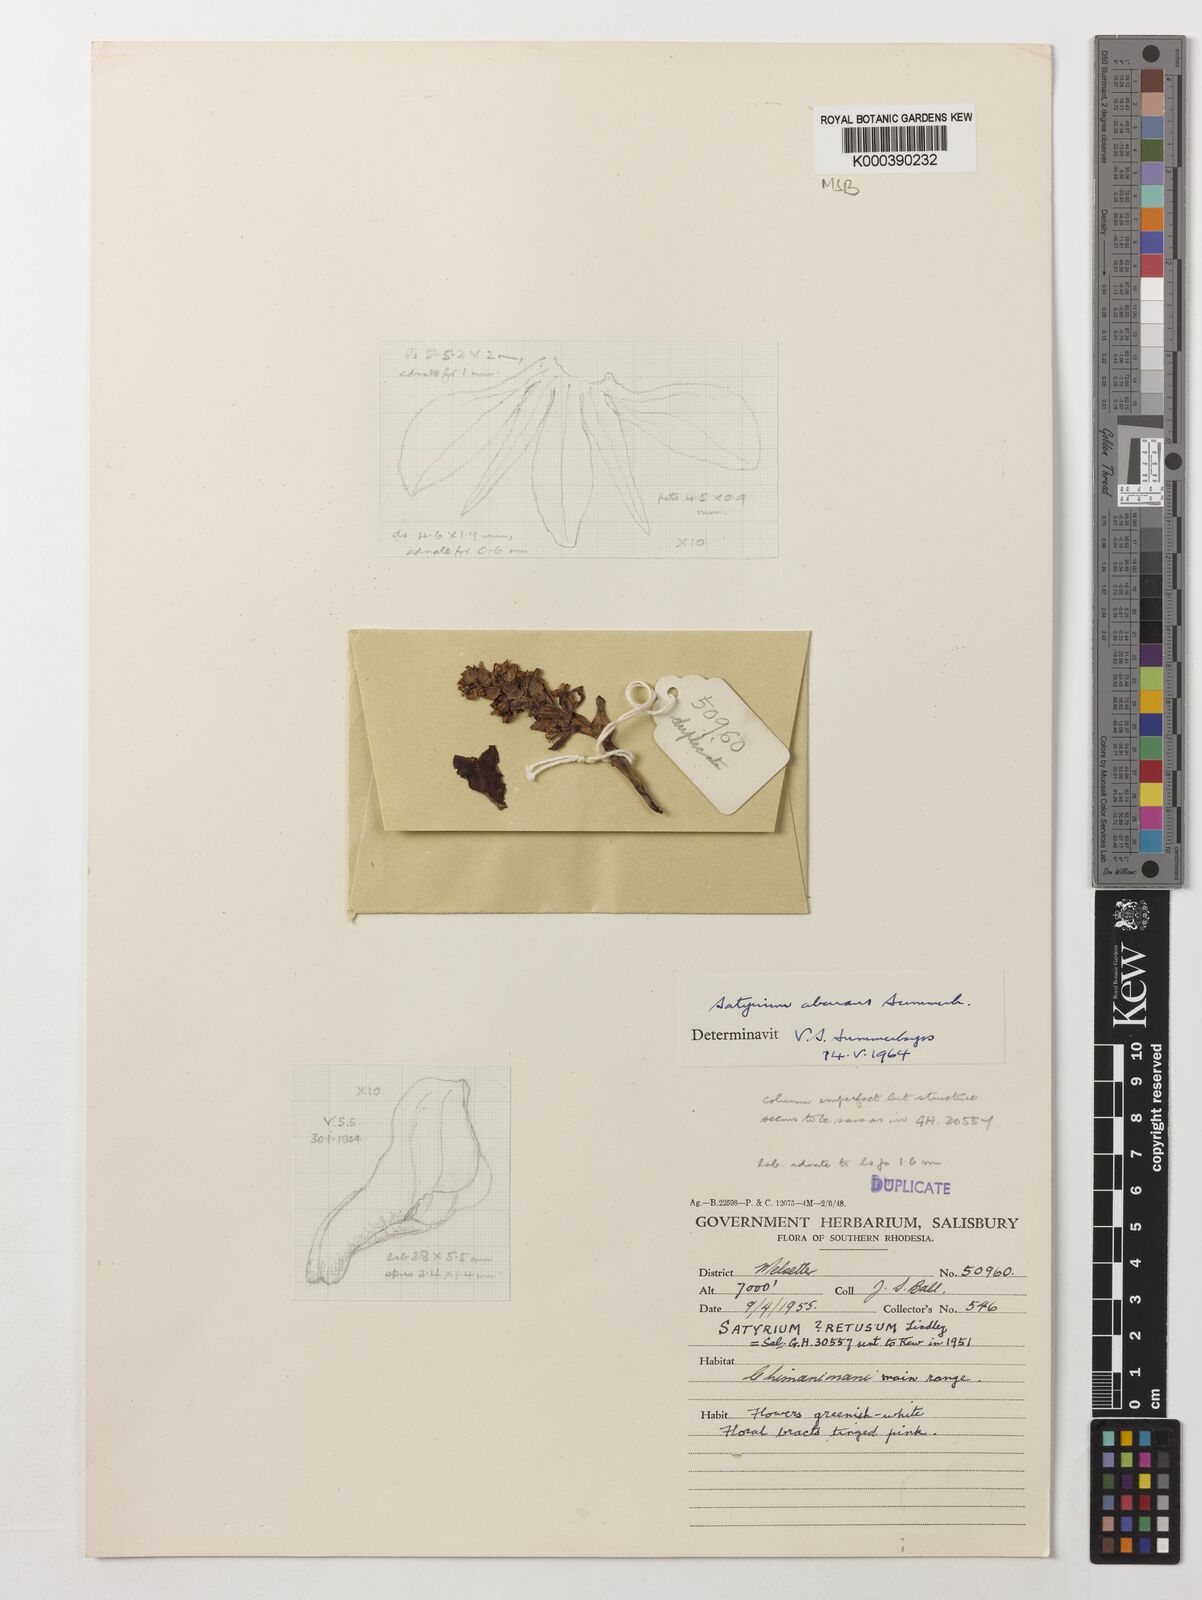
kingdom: Plantae
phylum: Tracheophyta
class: Liliopsida
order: Asparagales
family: Orchidaceae
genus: Satyrium
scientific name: Satyrium aberrans
